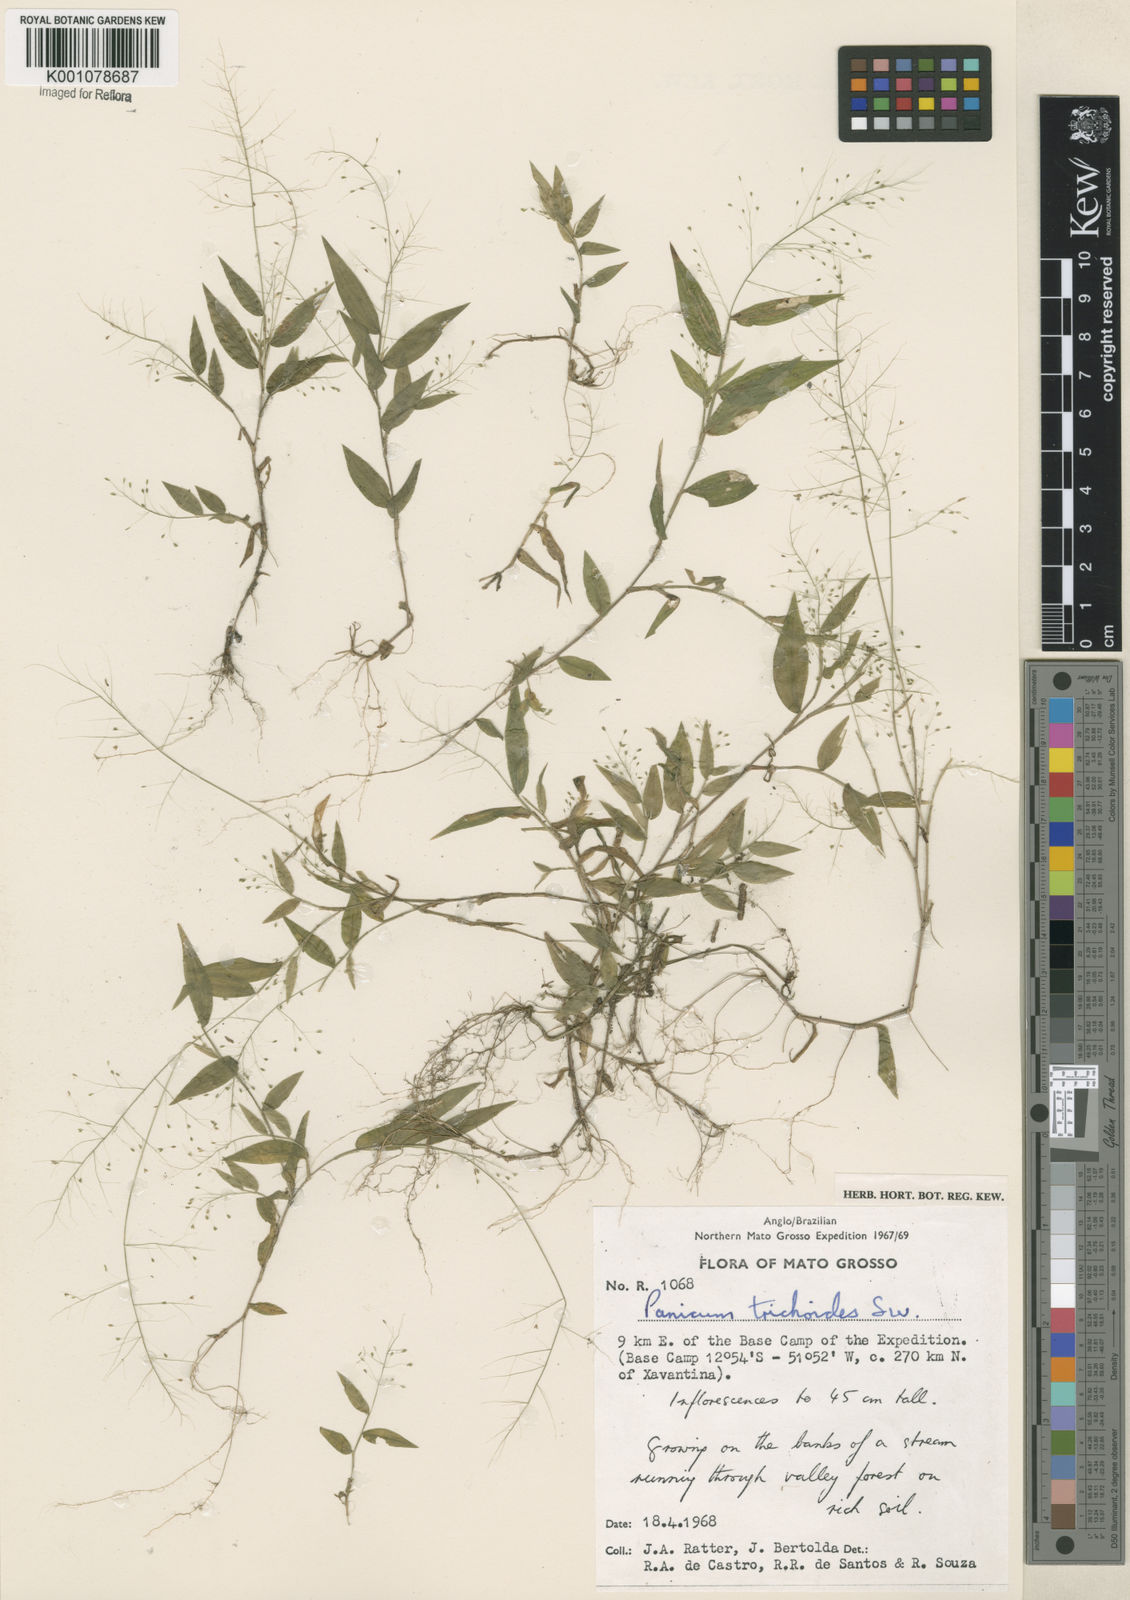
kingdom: Plantae
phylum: Tracheophyta
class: Liliopsida
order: Poales
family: Poaceae
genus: Panicum
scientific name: Panicum trichoides
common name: Tickle grass
